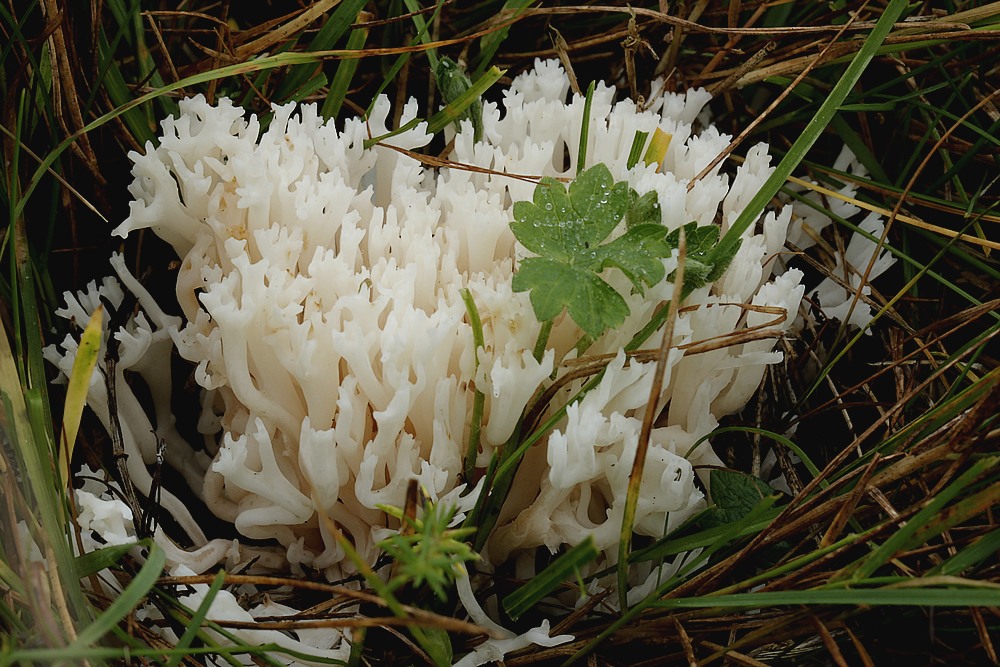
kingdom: Fungi
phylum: Basidiomycota
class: Agaricomycetes
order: Agaricales
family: Clavariaceae
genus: Ramariopsis
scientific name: Ramariopsis kunzei
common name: mangegrenet køllesvamp
